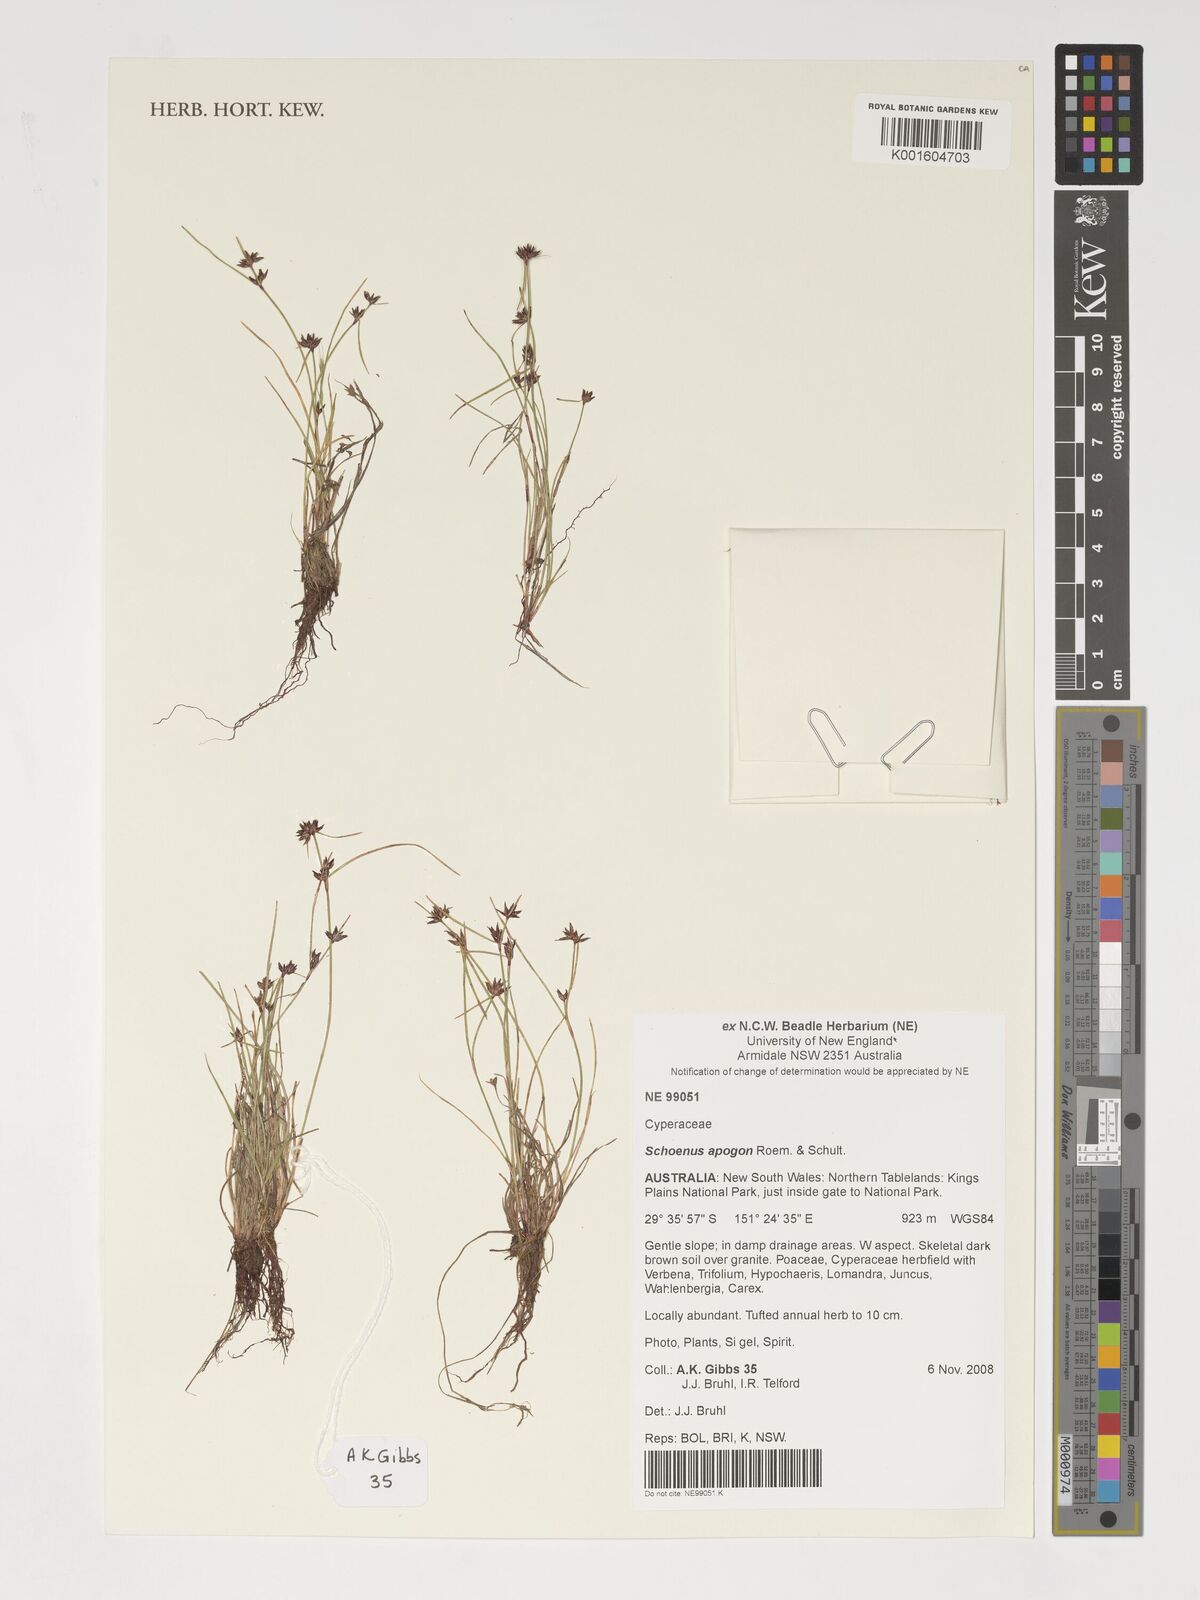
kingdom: Plantae
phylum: Tracheophyta
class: Liliopsida
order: Poales
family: Cyperaceae
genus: Schoenus
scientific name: Schoenus apogon
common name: Smooth bogrush
